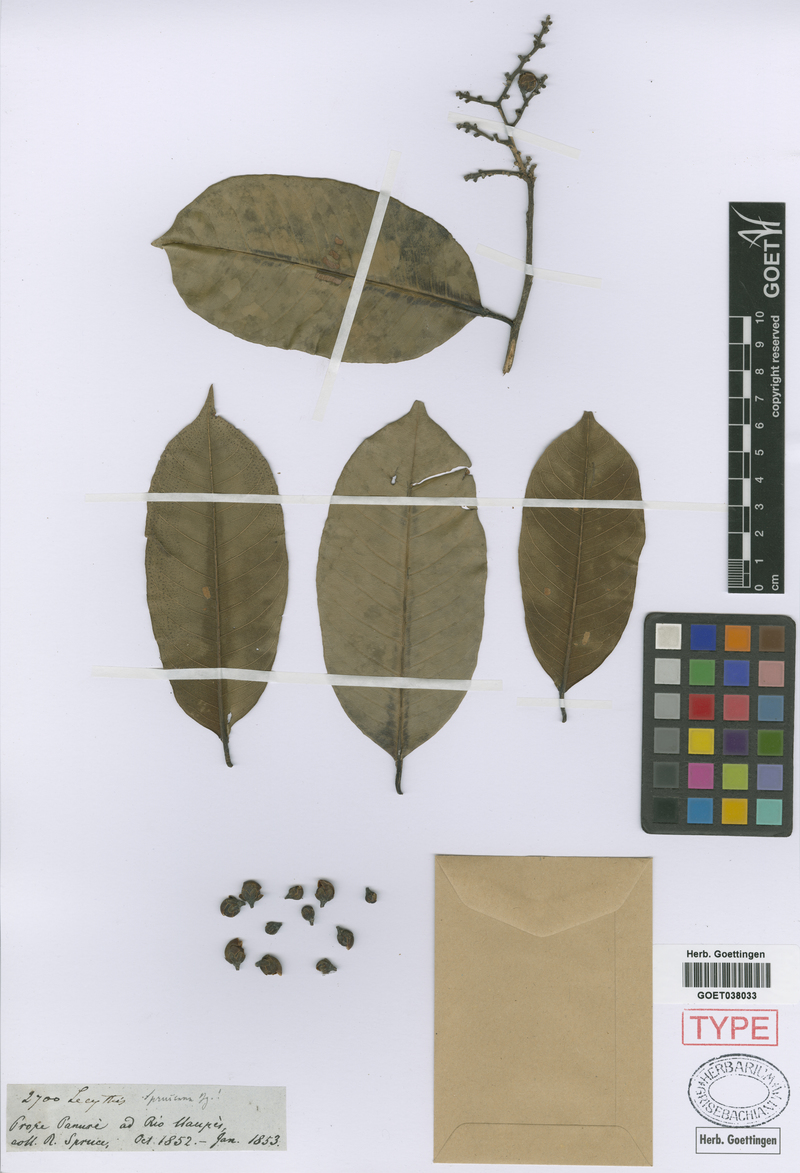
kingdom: Plantae
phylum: Tracheophyta
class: Magnoliopsida
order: Ericales
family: Lecythidaceae
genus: Lecythis
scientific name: Lecythis chartacea
